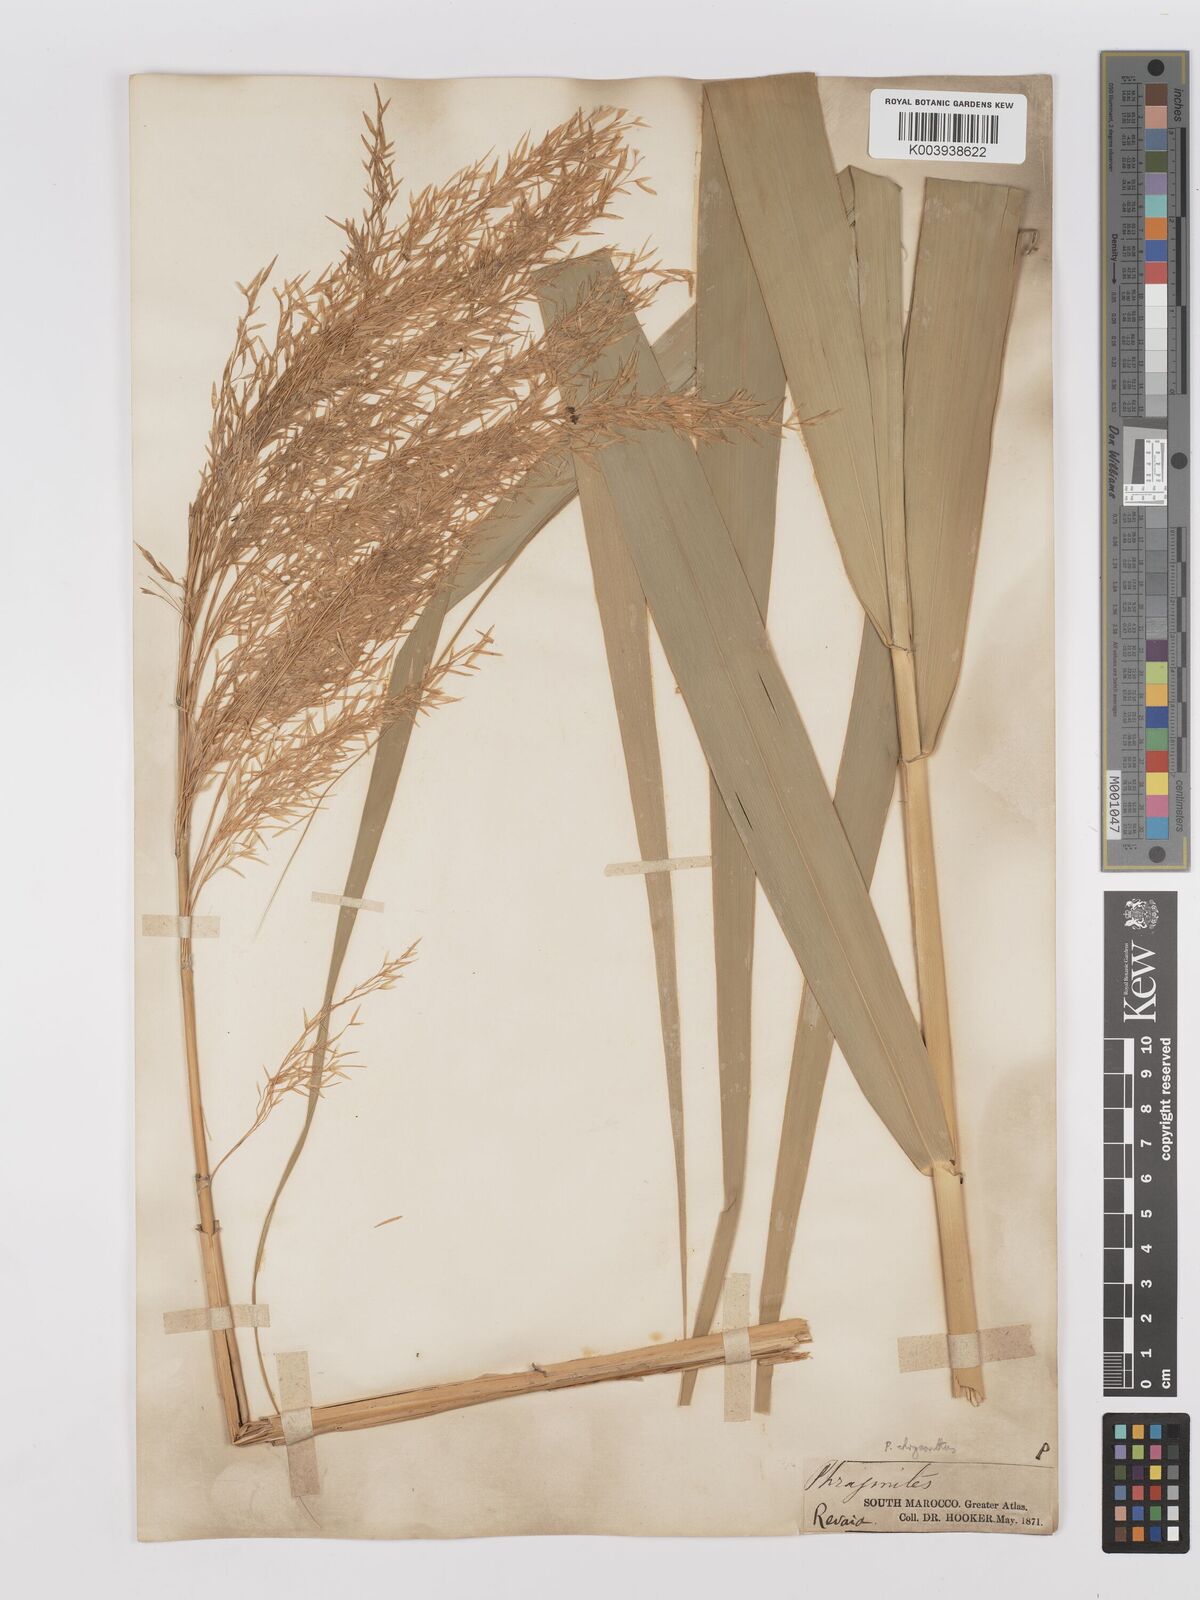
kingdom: Plantae
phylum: Tracheophyta
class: Liliopsida
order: Poales
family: Poaceae
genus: Phragmites
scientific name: Phragmites australis
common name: Common reed
